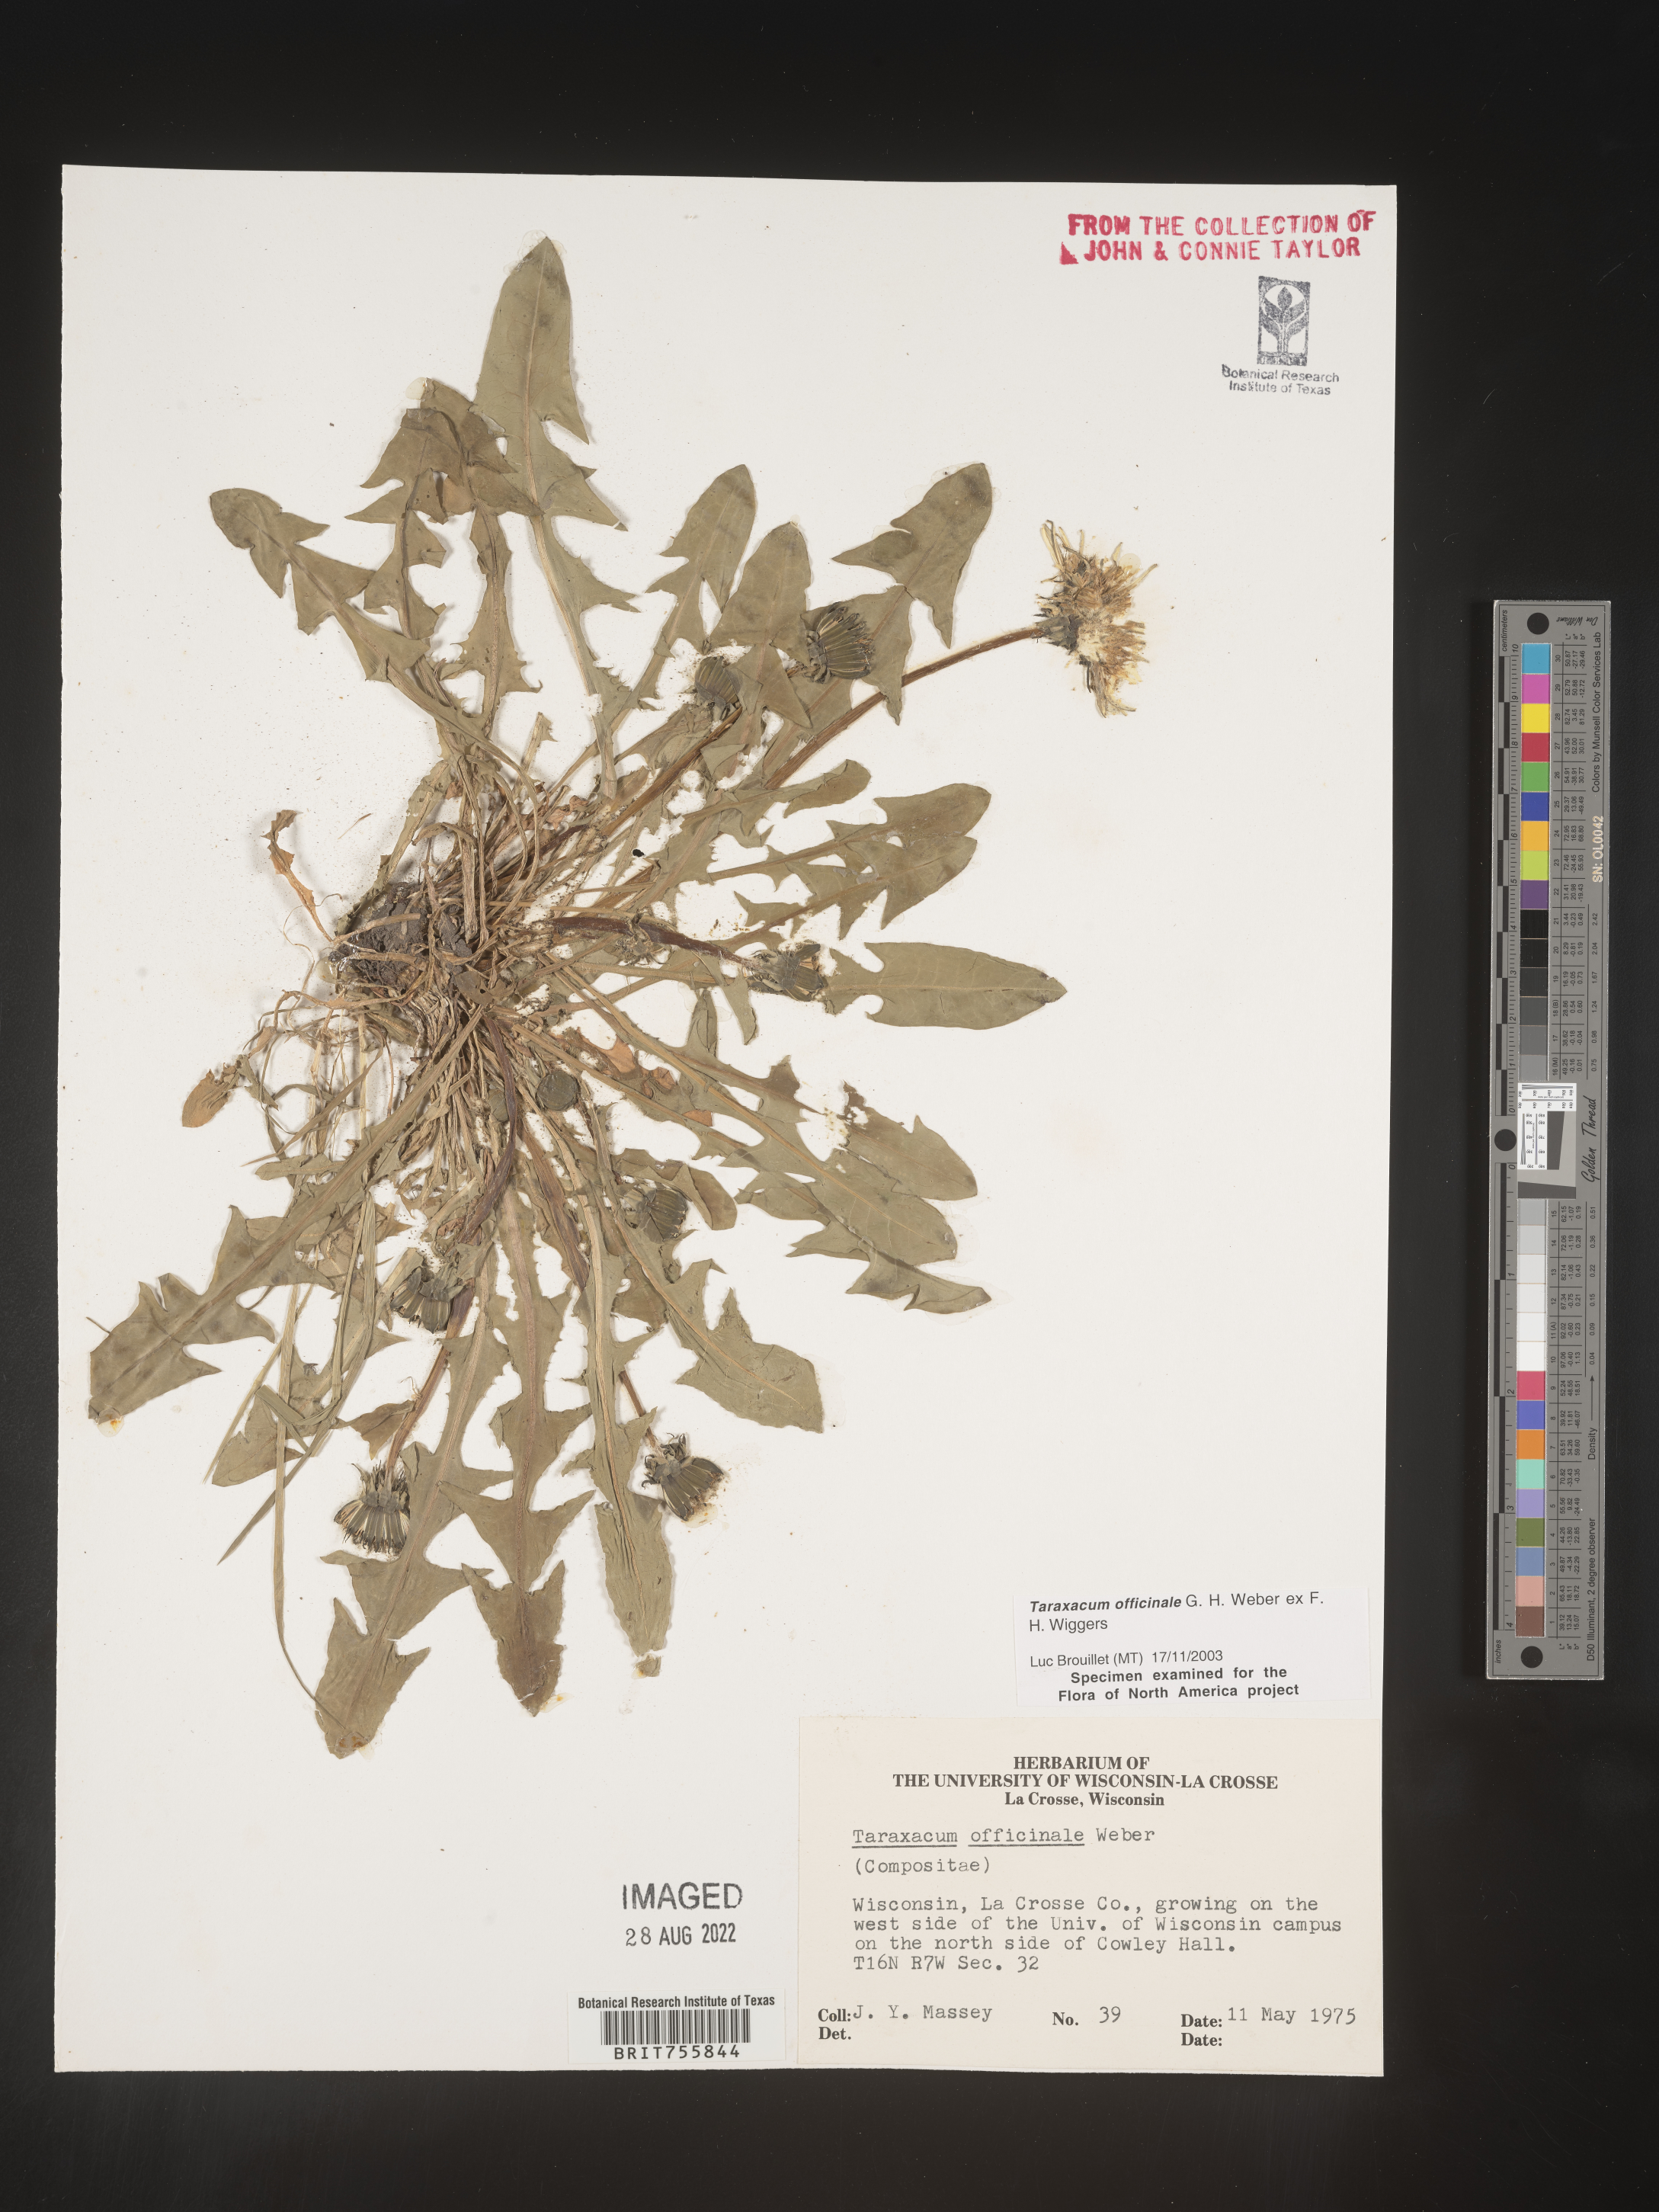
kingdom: Plantae
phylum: Tracheophyta
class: Magnoliopsida
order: Asterales
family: Asteraceae
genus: Taraxacum
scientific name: Taraxacum officinale
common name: Common dandelion
